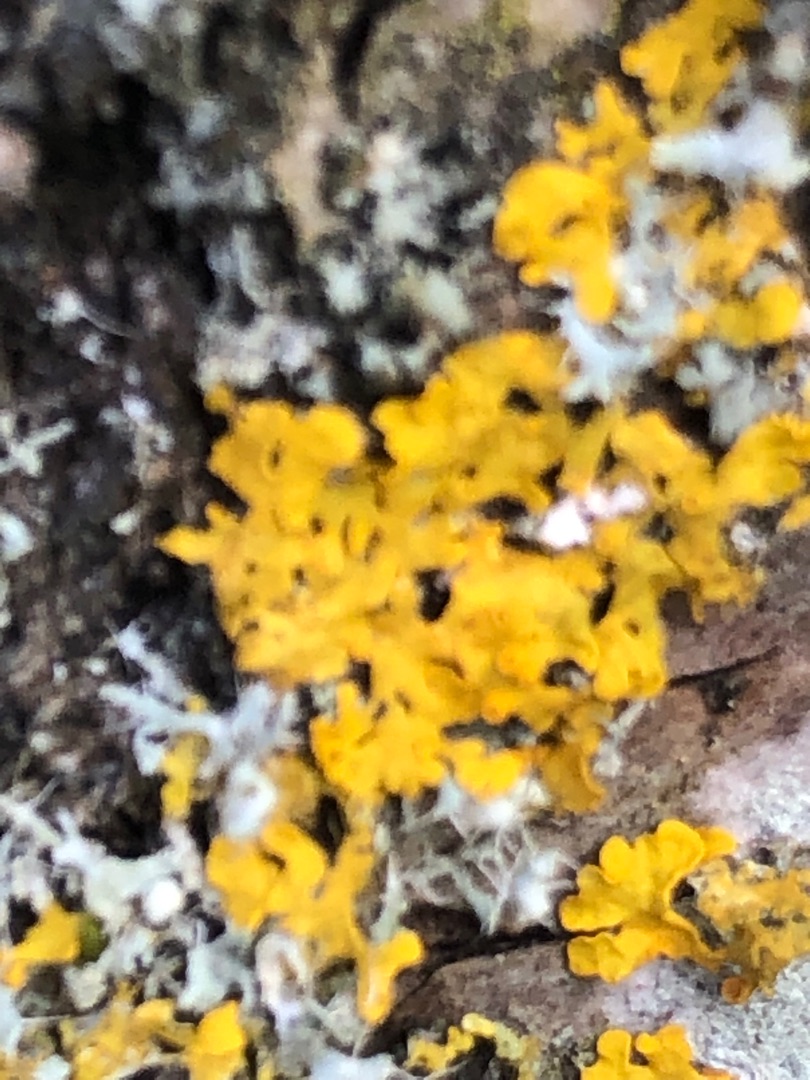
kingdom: Fungi
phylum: Ascomycota
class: Lecanoromycetes
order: Teloschistales
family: Teloschistaceae
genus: Xanthoria
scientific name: Xanthoria parietina
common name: Almindelig væggelav
